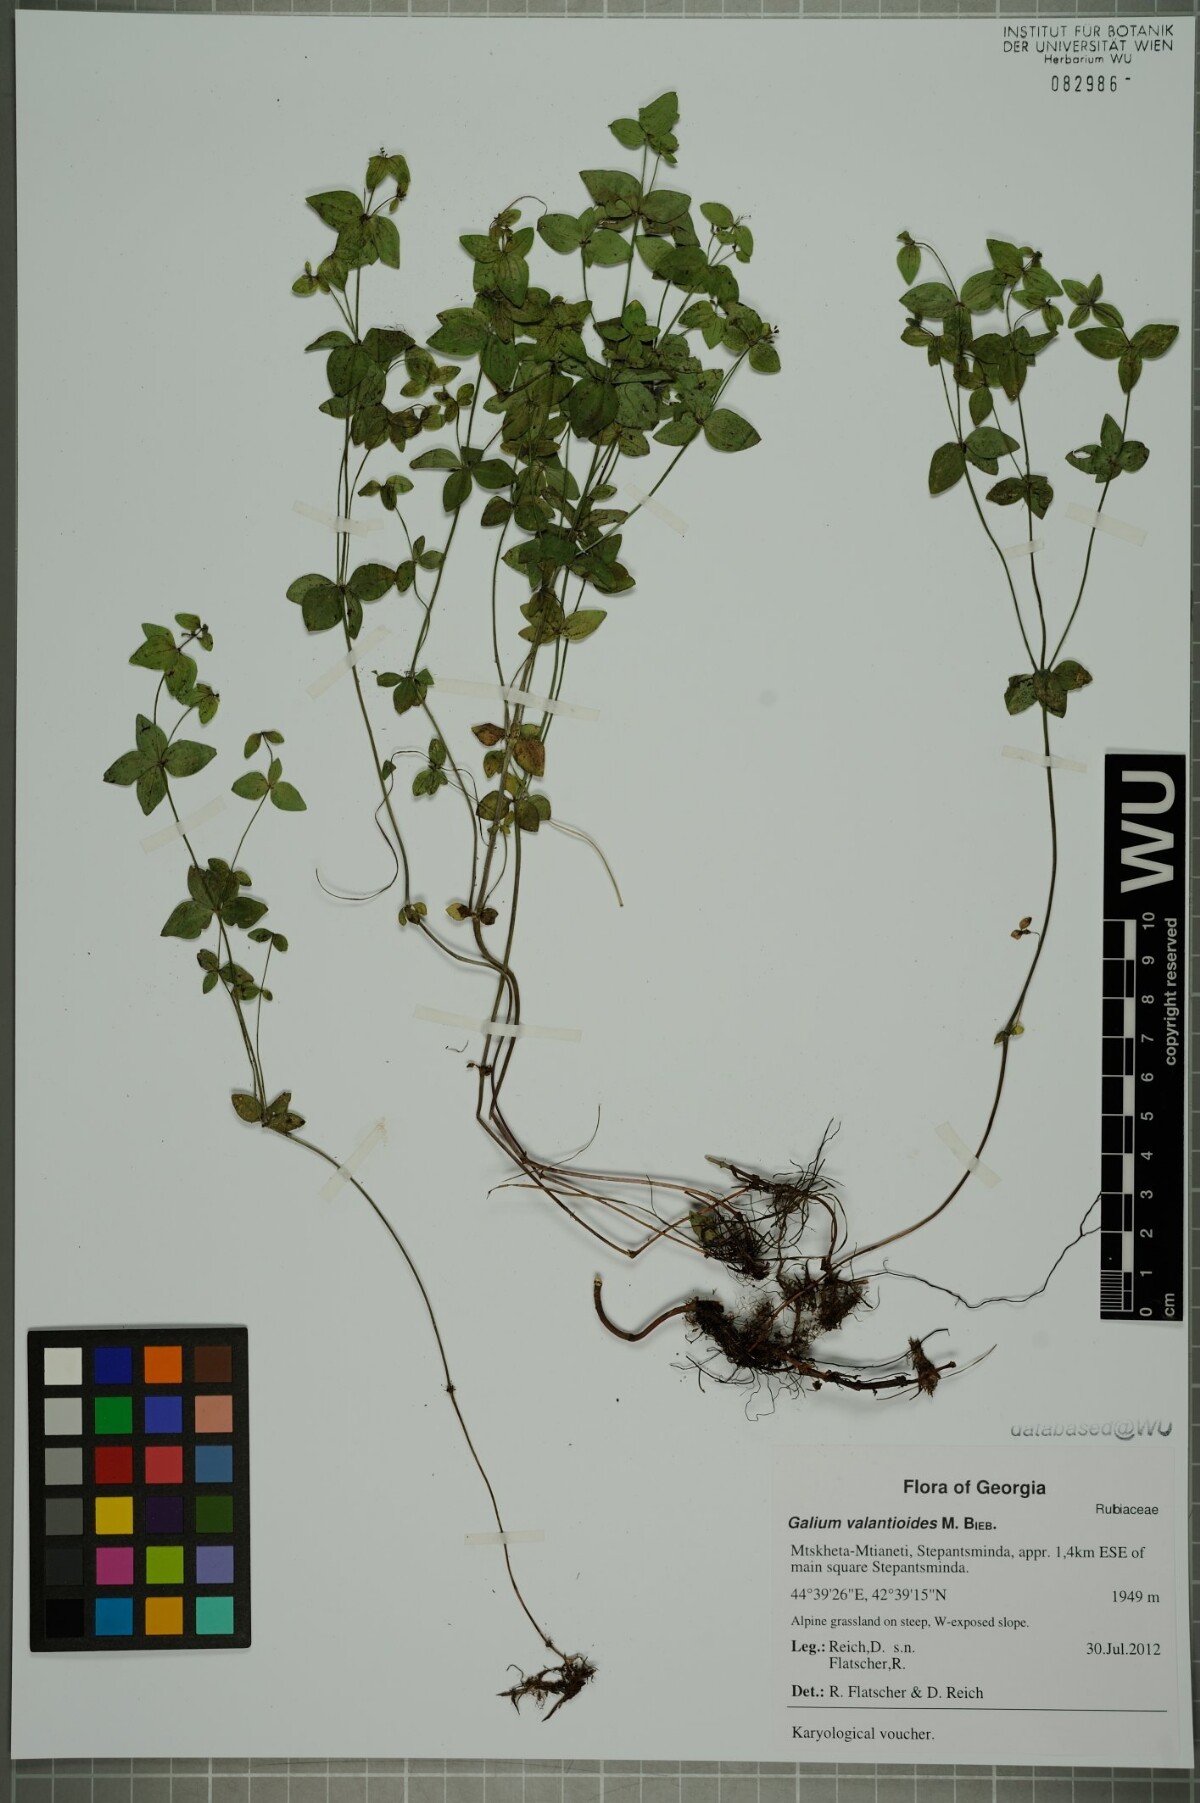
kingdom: Plantae
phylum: Tracheophyta
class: Magnoliopsida
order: Gentianales
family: Rubiaceae
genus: Galium
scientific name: Galium valantioides
